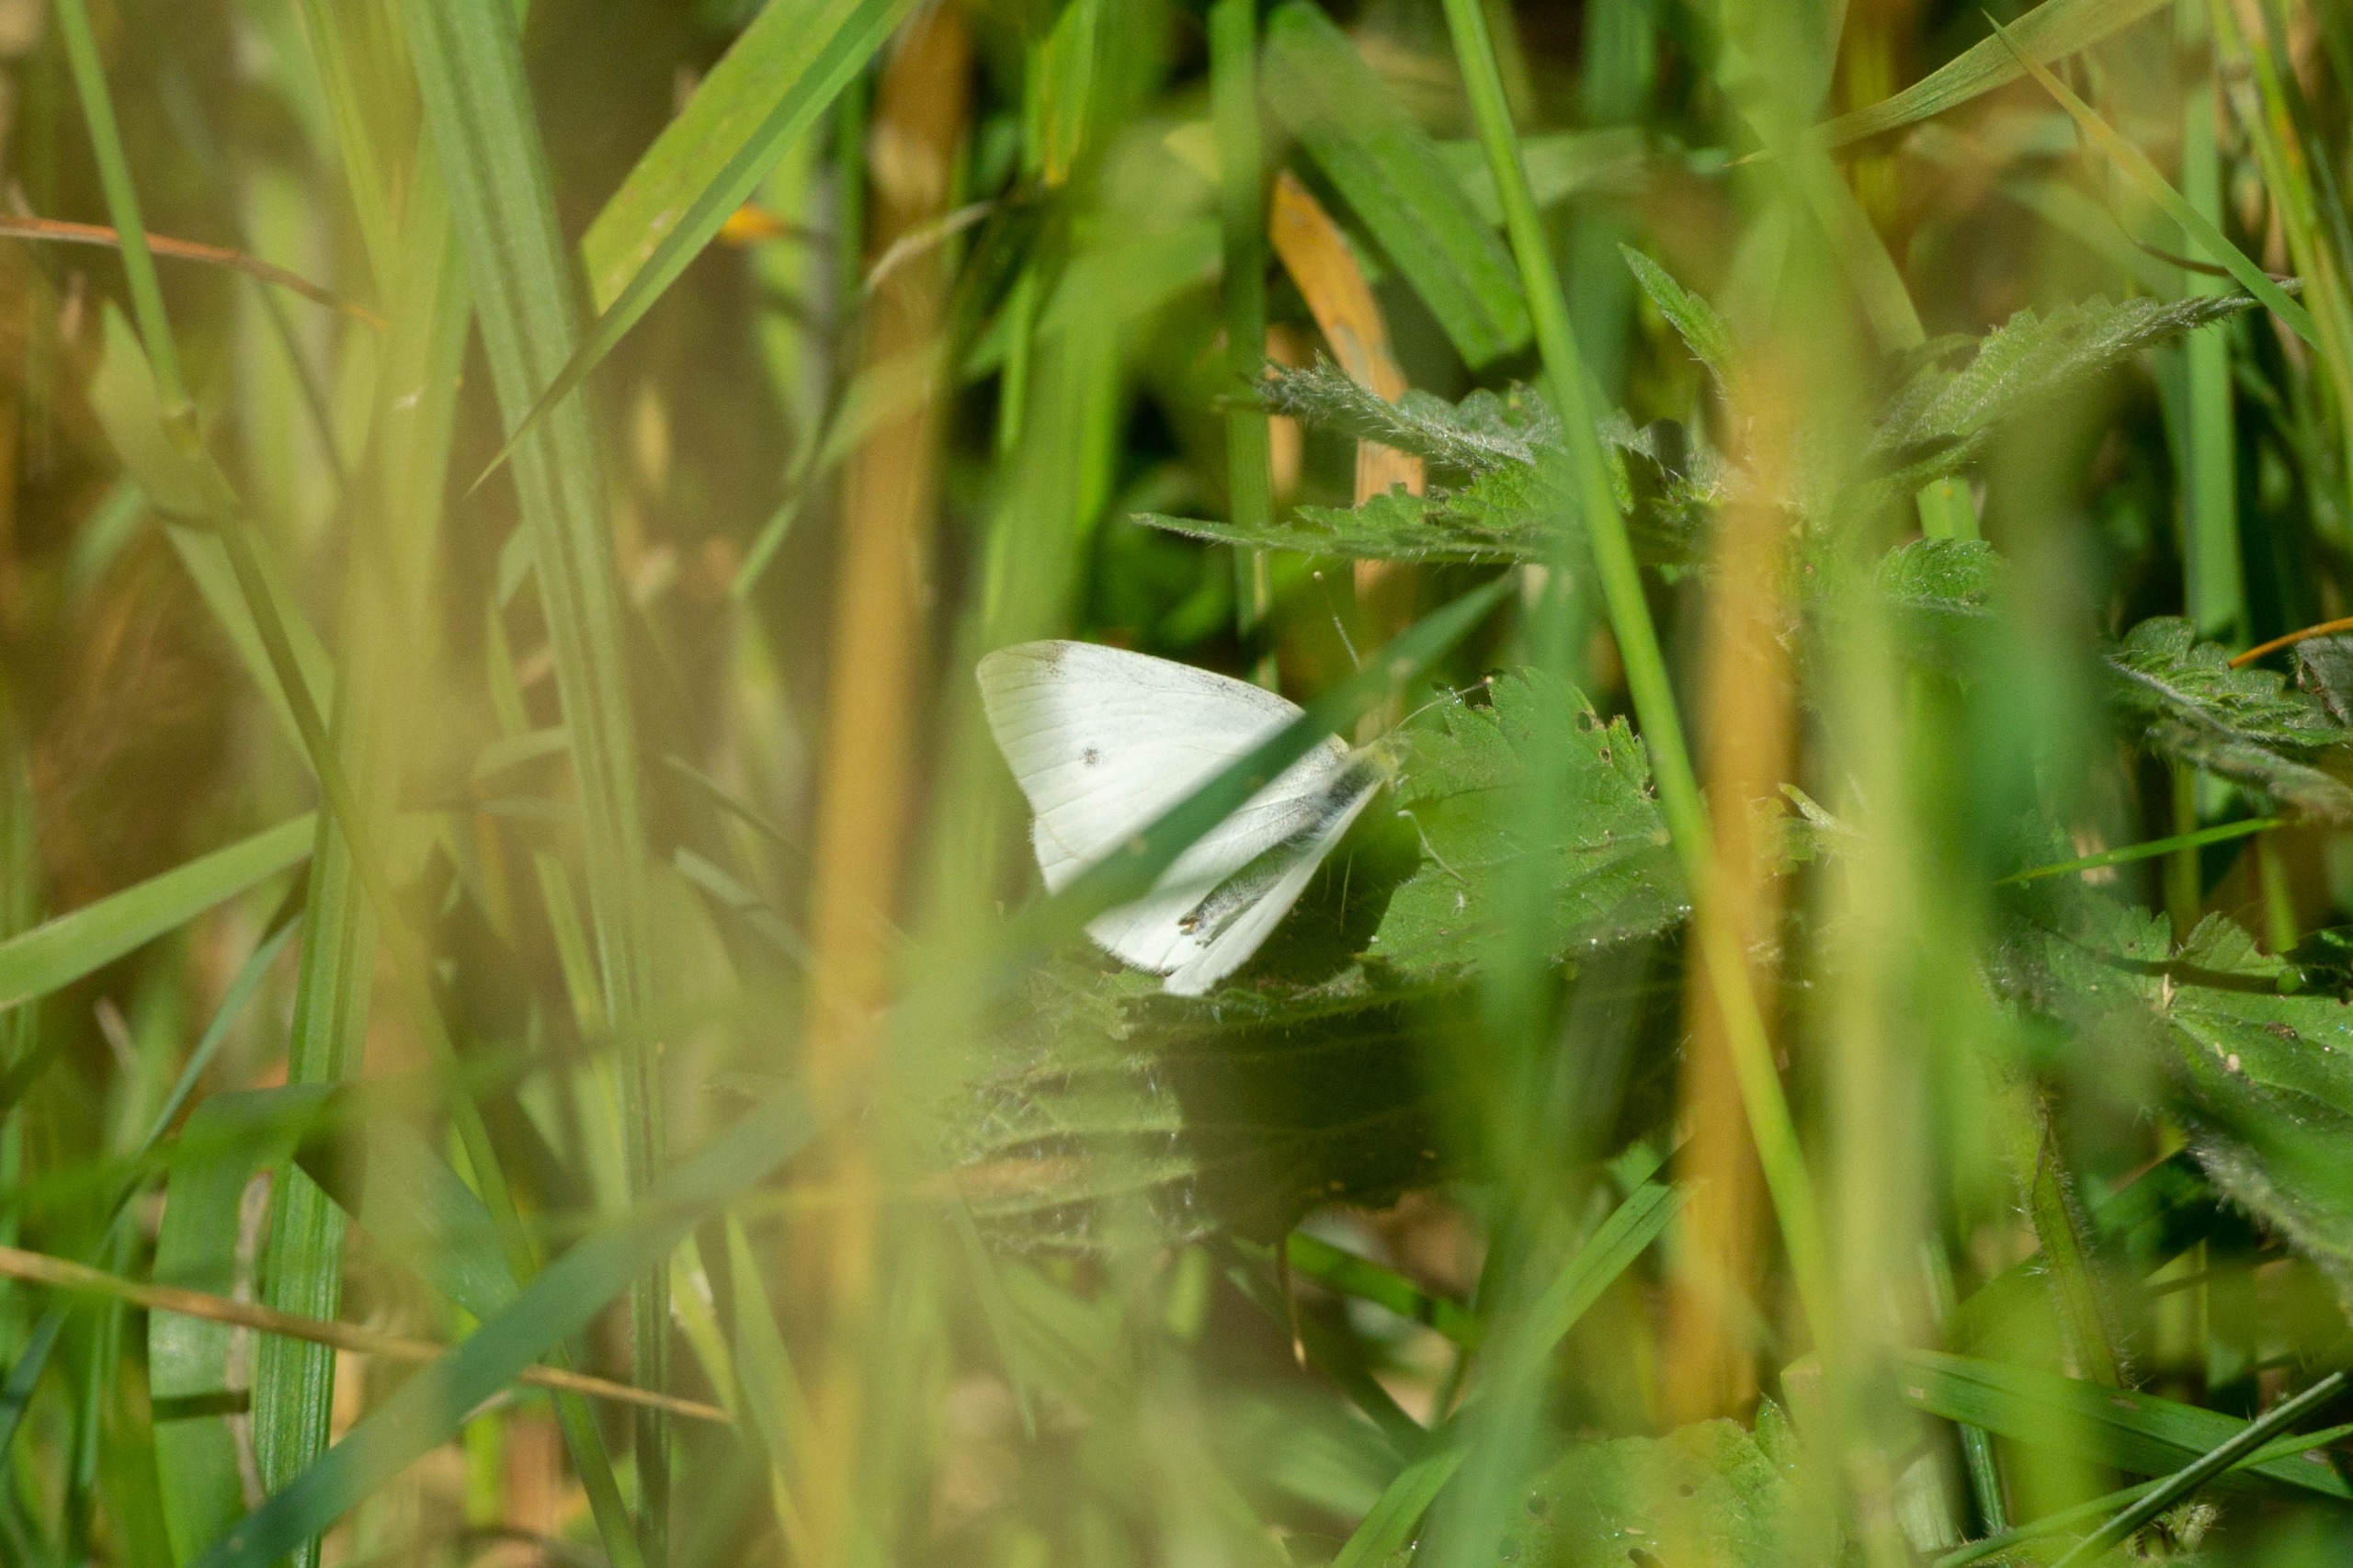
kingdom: Animalia
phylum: Arthropoda
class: Insecta
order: Lepidoptera
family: Pieridae
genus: Pieris
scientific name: Pieris rapae
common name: Lille kålsommerfugl
